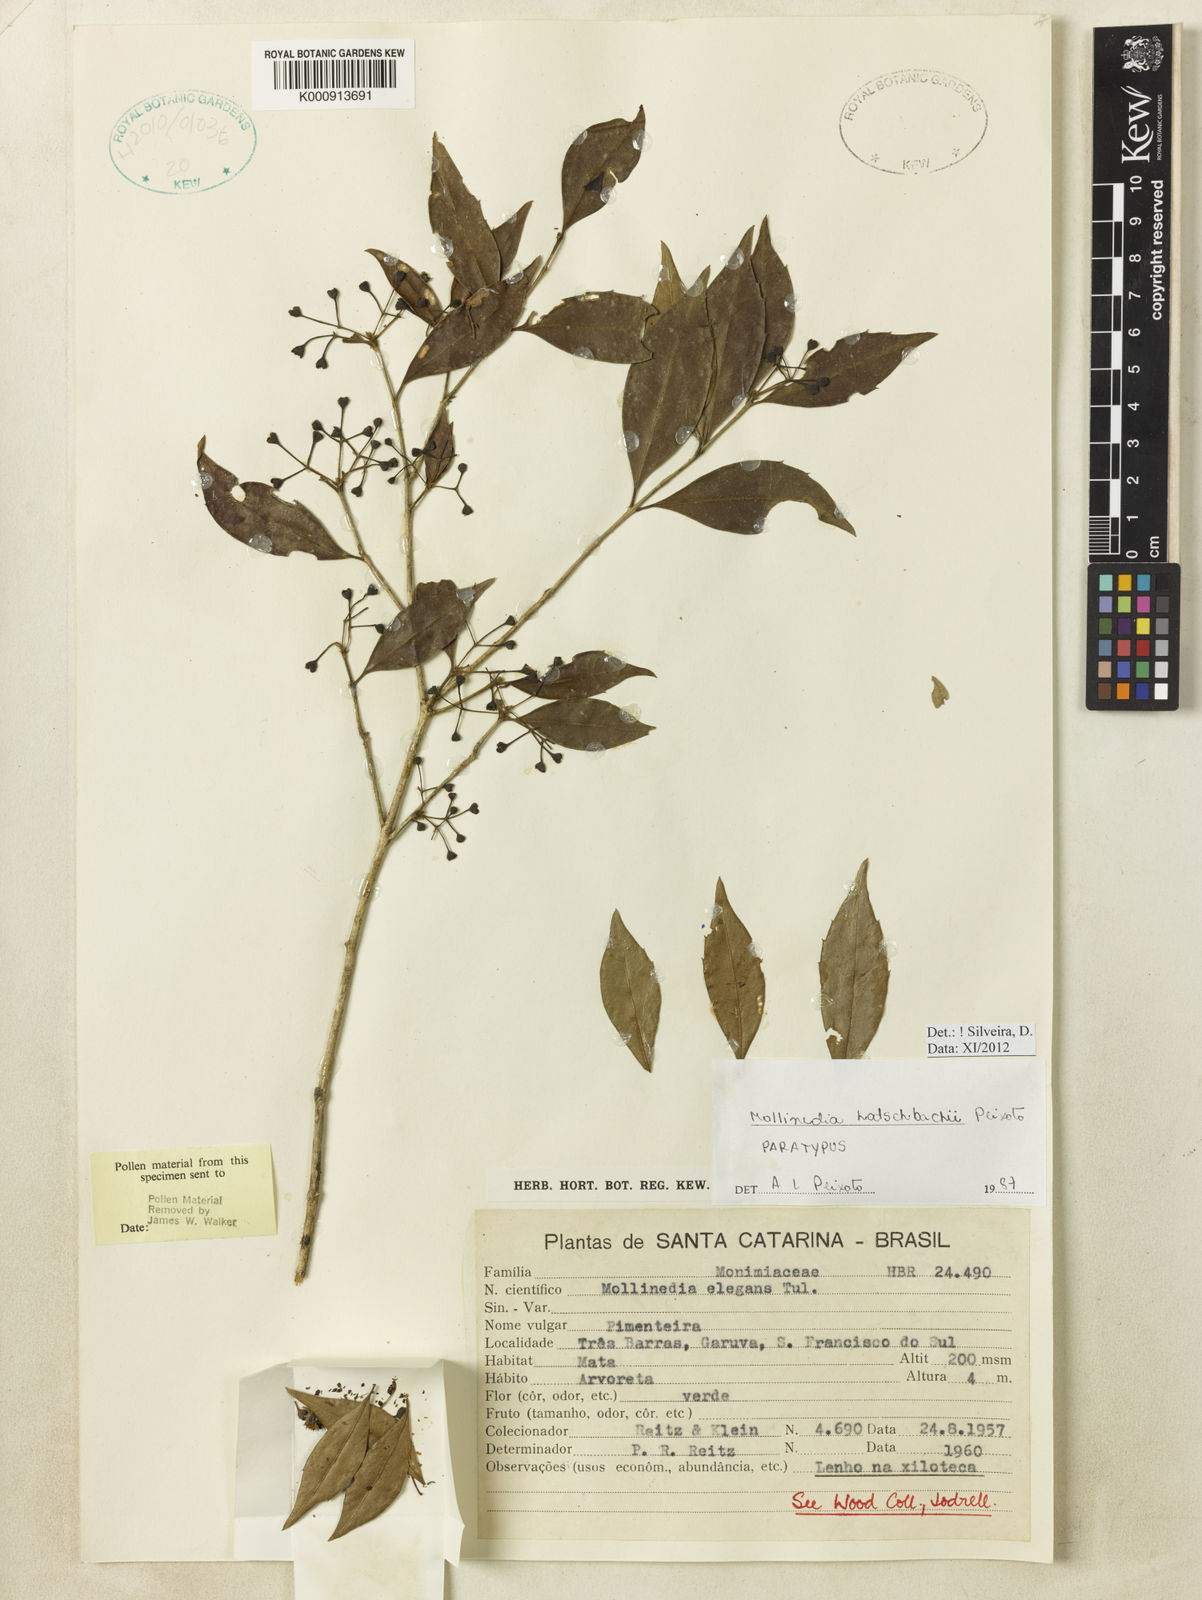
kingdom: Plantae
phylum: Tracheophyta
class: Magnoliopsida
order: Laurales
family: Monimiaceae
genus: Mollinedia
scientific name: Mollinedia elegans
